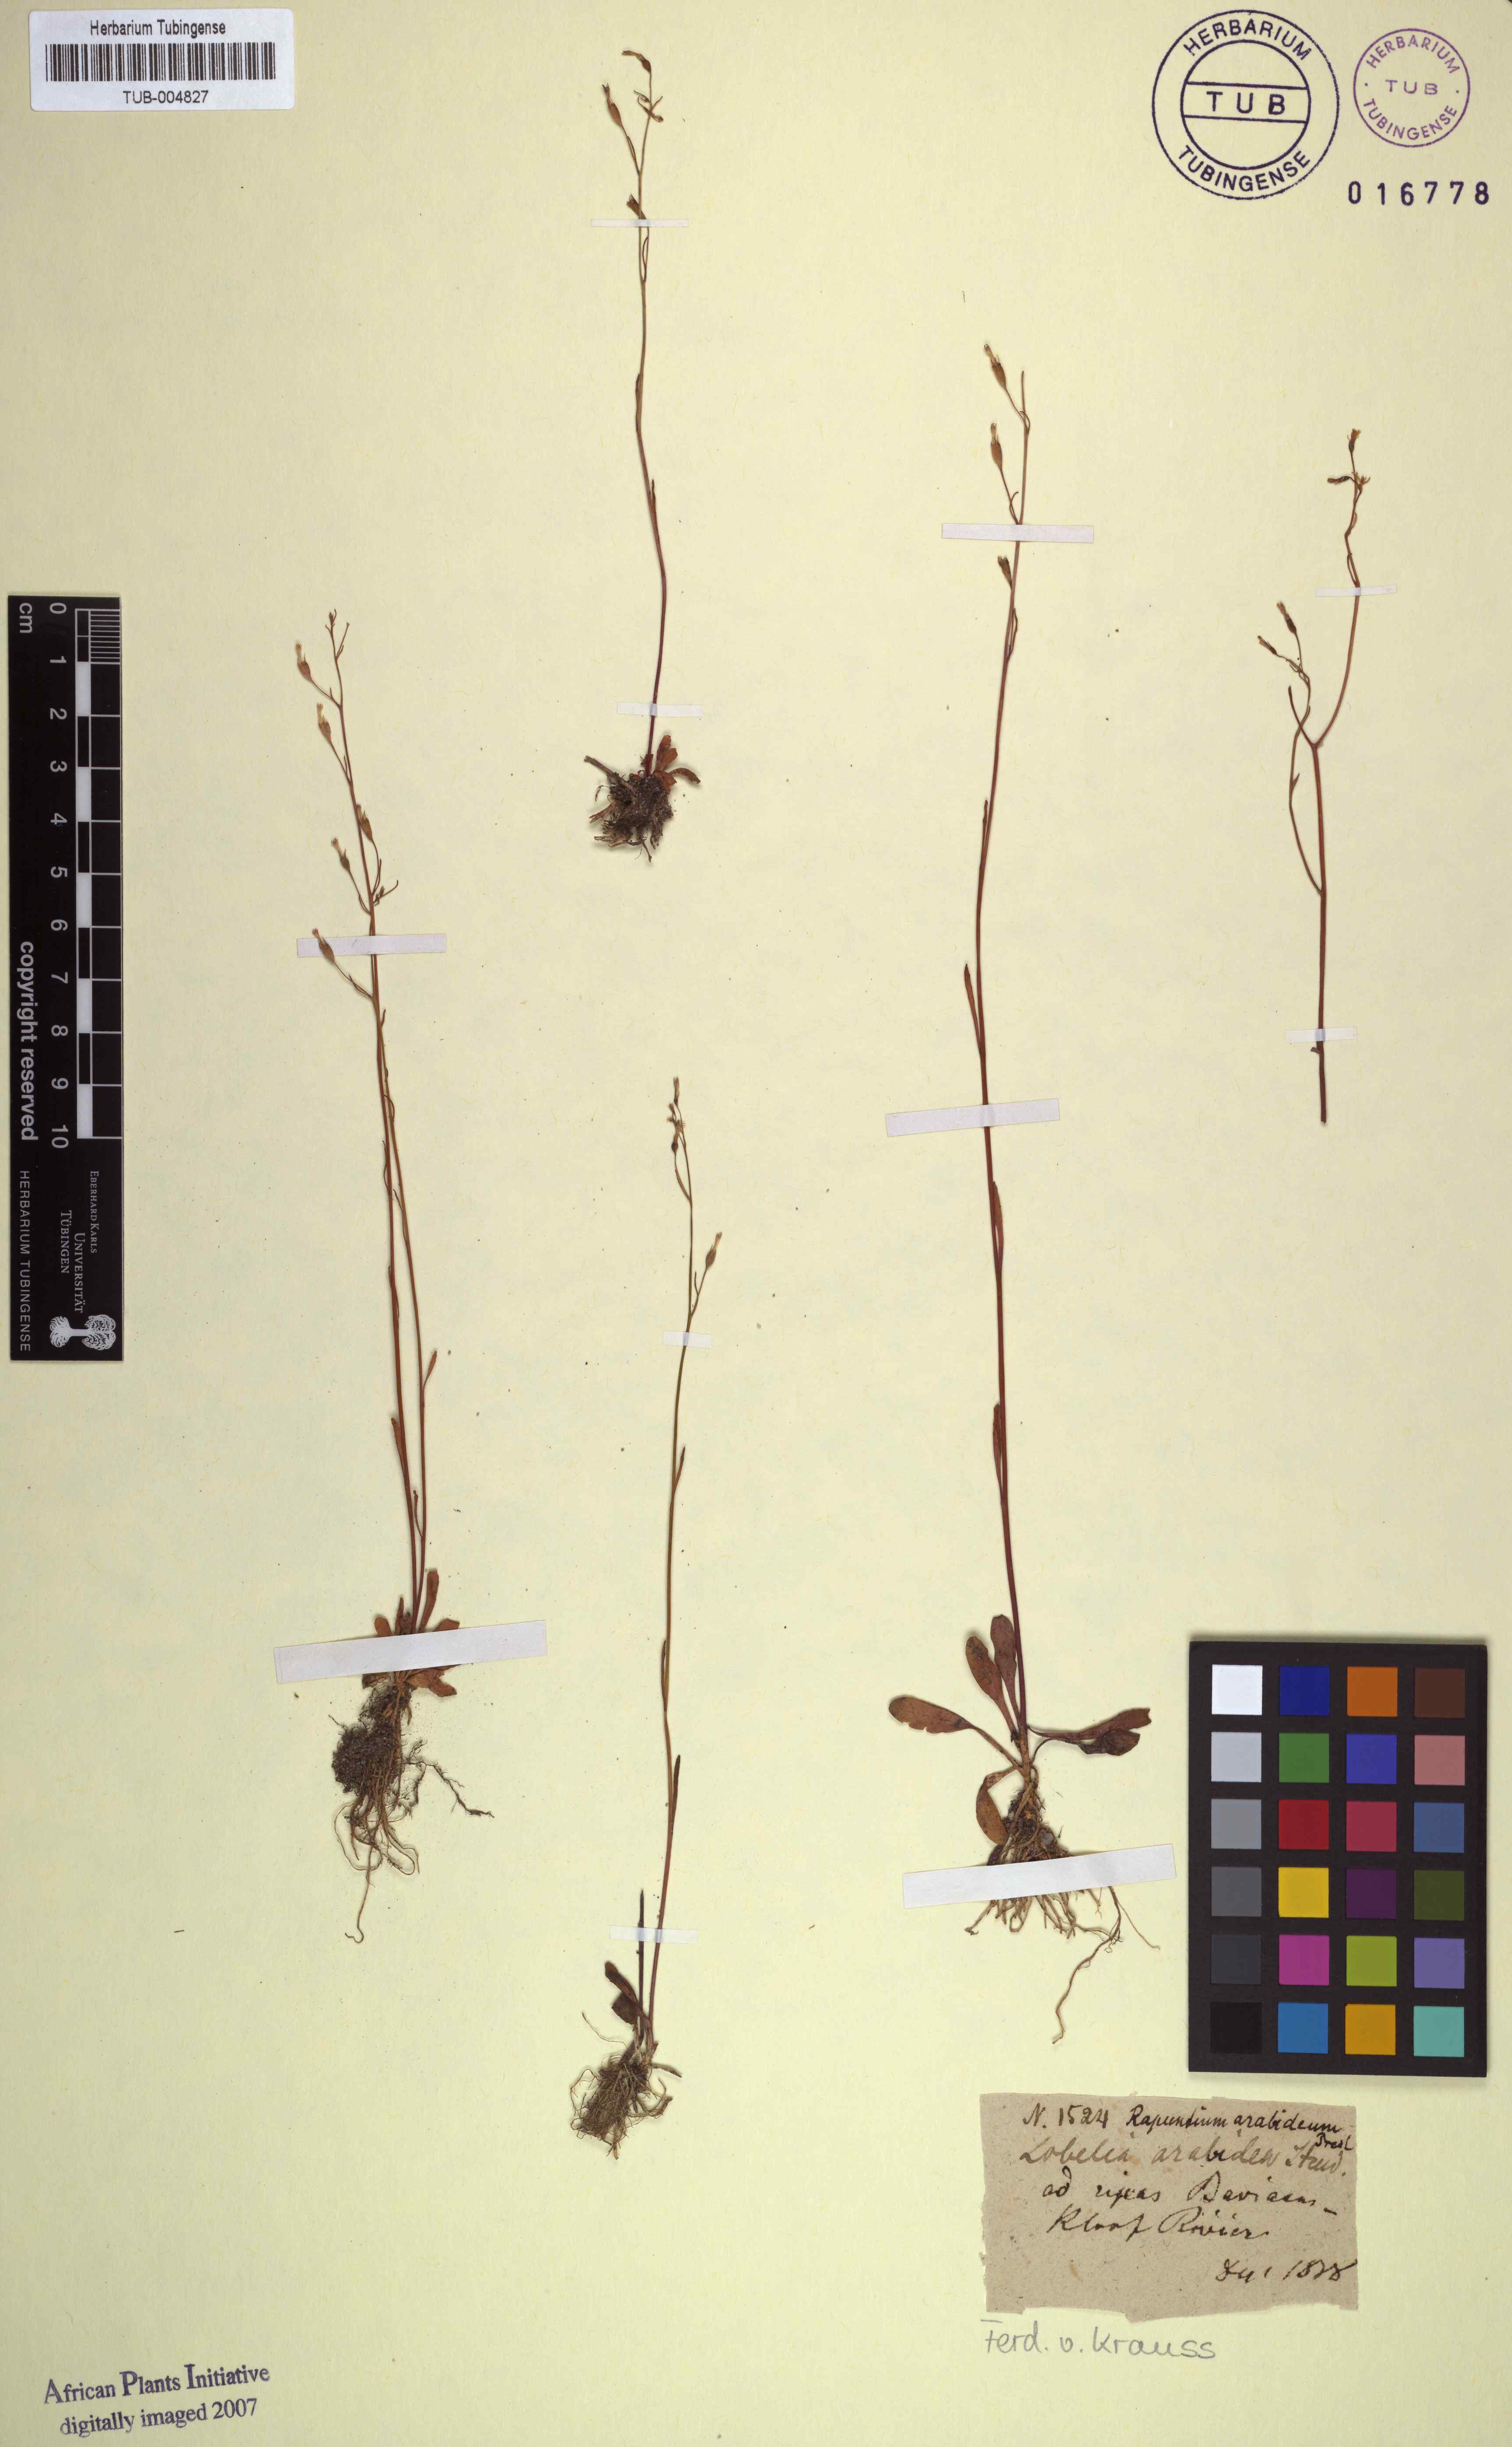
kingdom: Plantae
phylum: Tracheophyta
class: Magnoliopsida
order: Asterales
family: Campanulaceae
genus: Wimmerella
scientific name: Wimmerella arabidea
